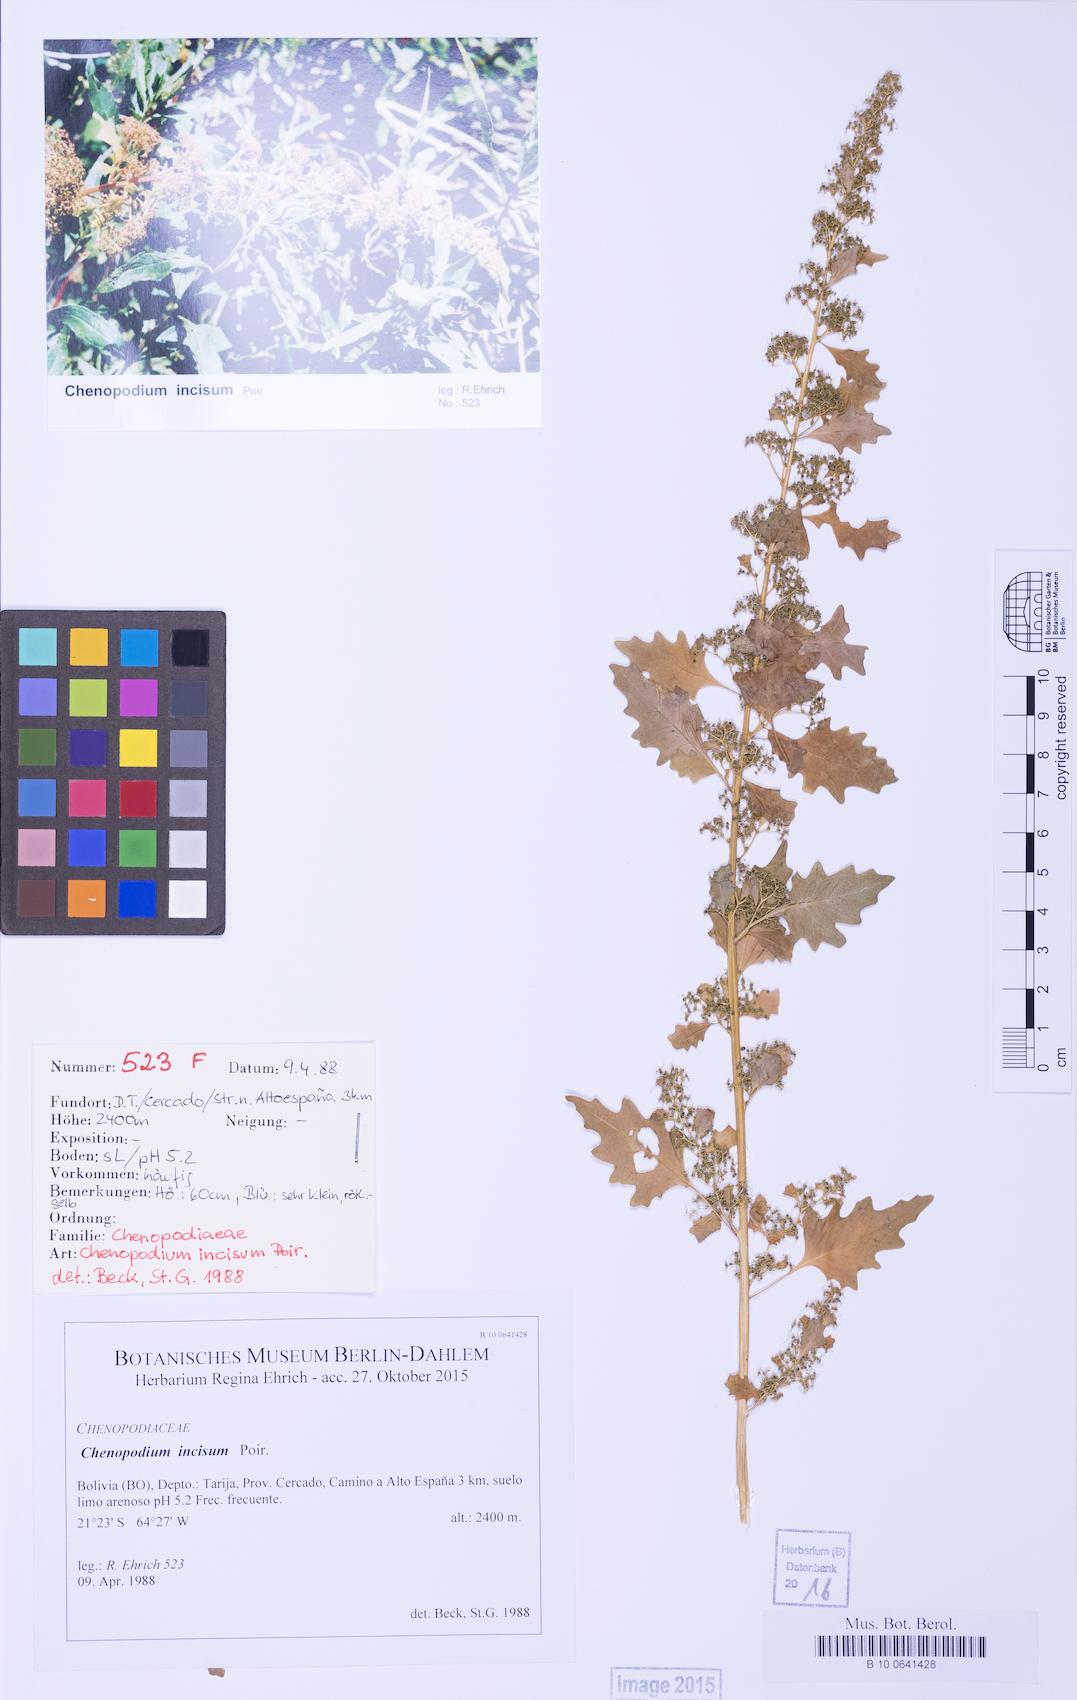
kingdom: Plantae
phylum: Tracheophyta
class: Magnoliopsida
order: Caryophyllales
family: Amaranthaceae
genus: Dysphania
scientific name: Dysphania graveolens
